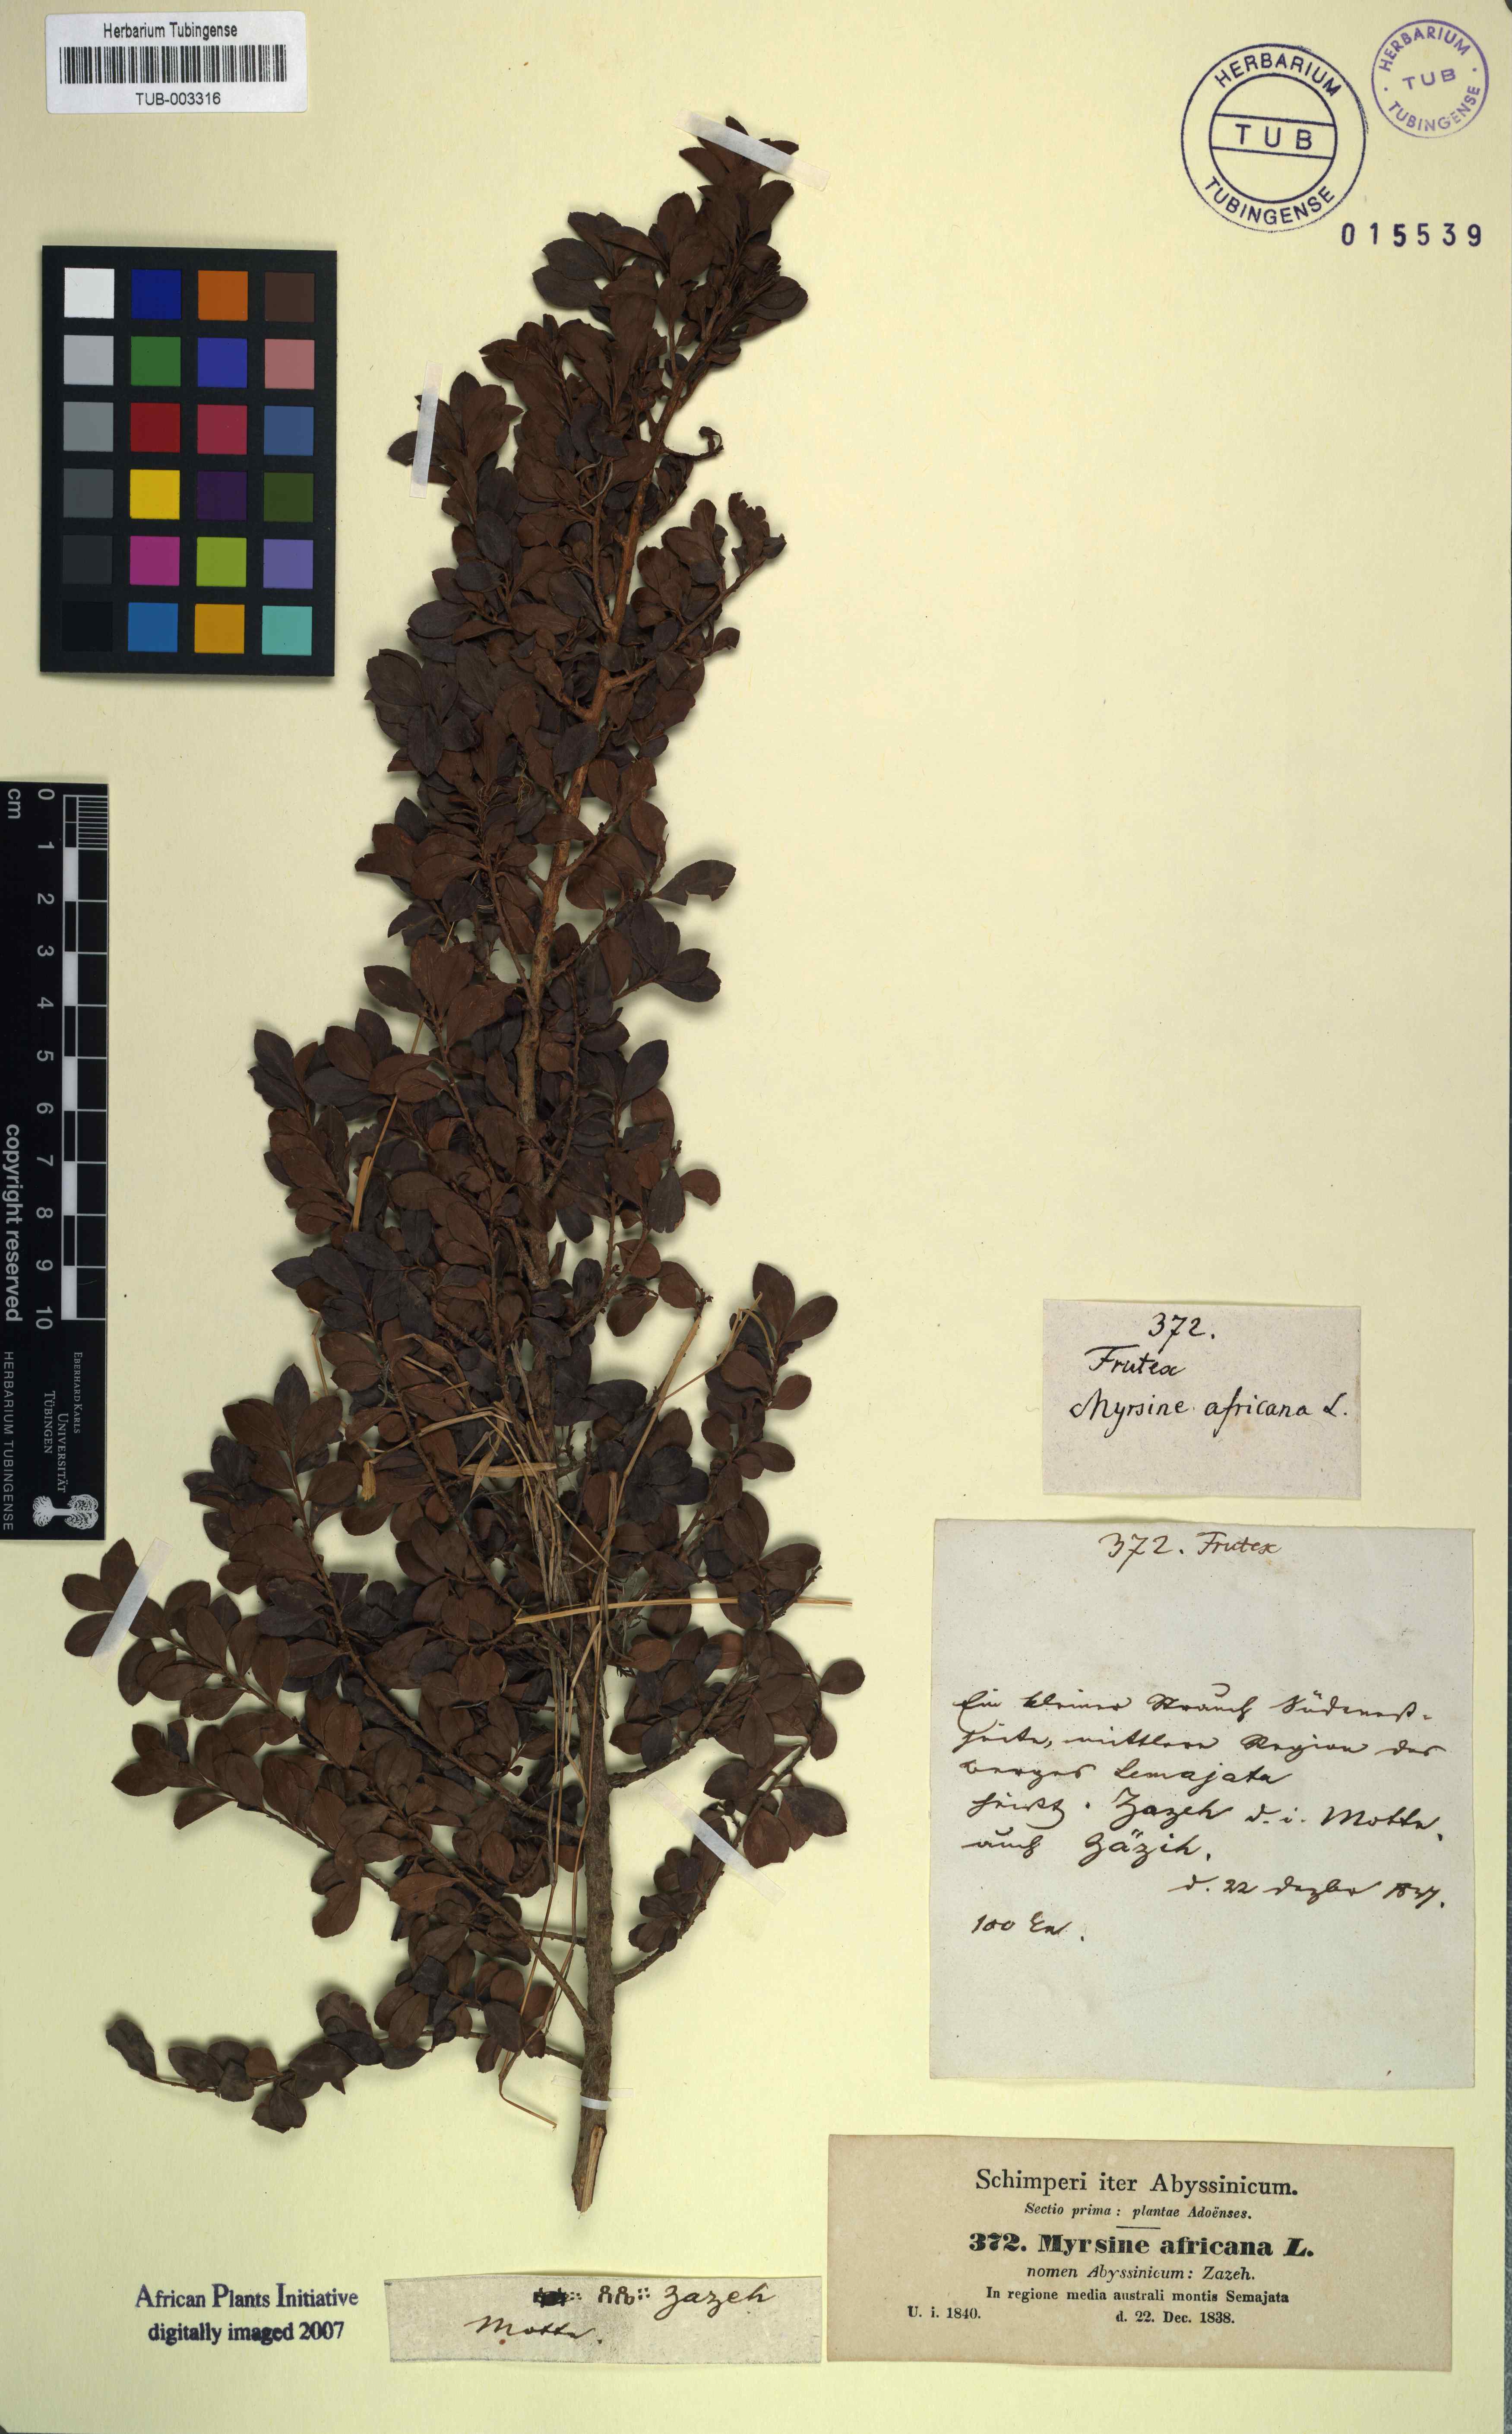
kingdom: Plantae
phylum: Tracheophyta
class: Magnoliopsida
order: Ericales
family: Primulaceae
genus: Myrsine
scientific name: Myrsine africana
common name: African-boxwood
